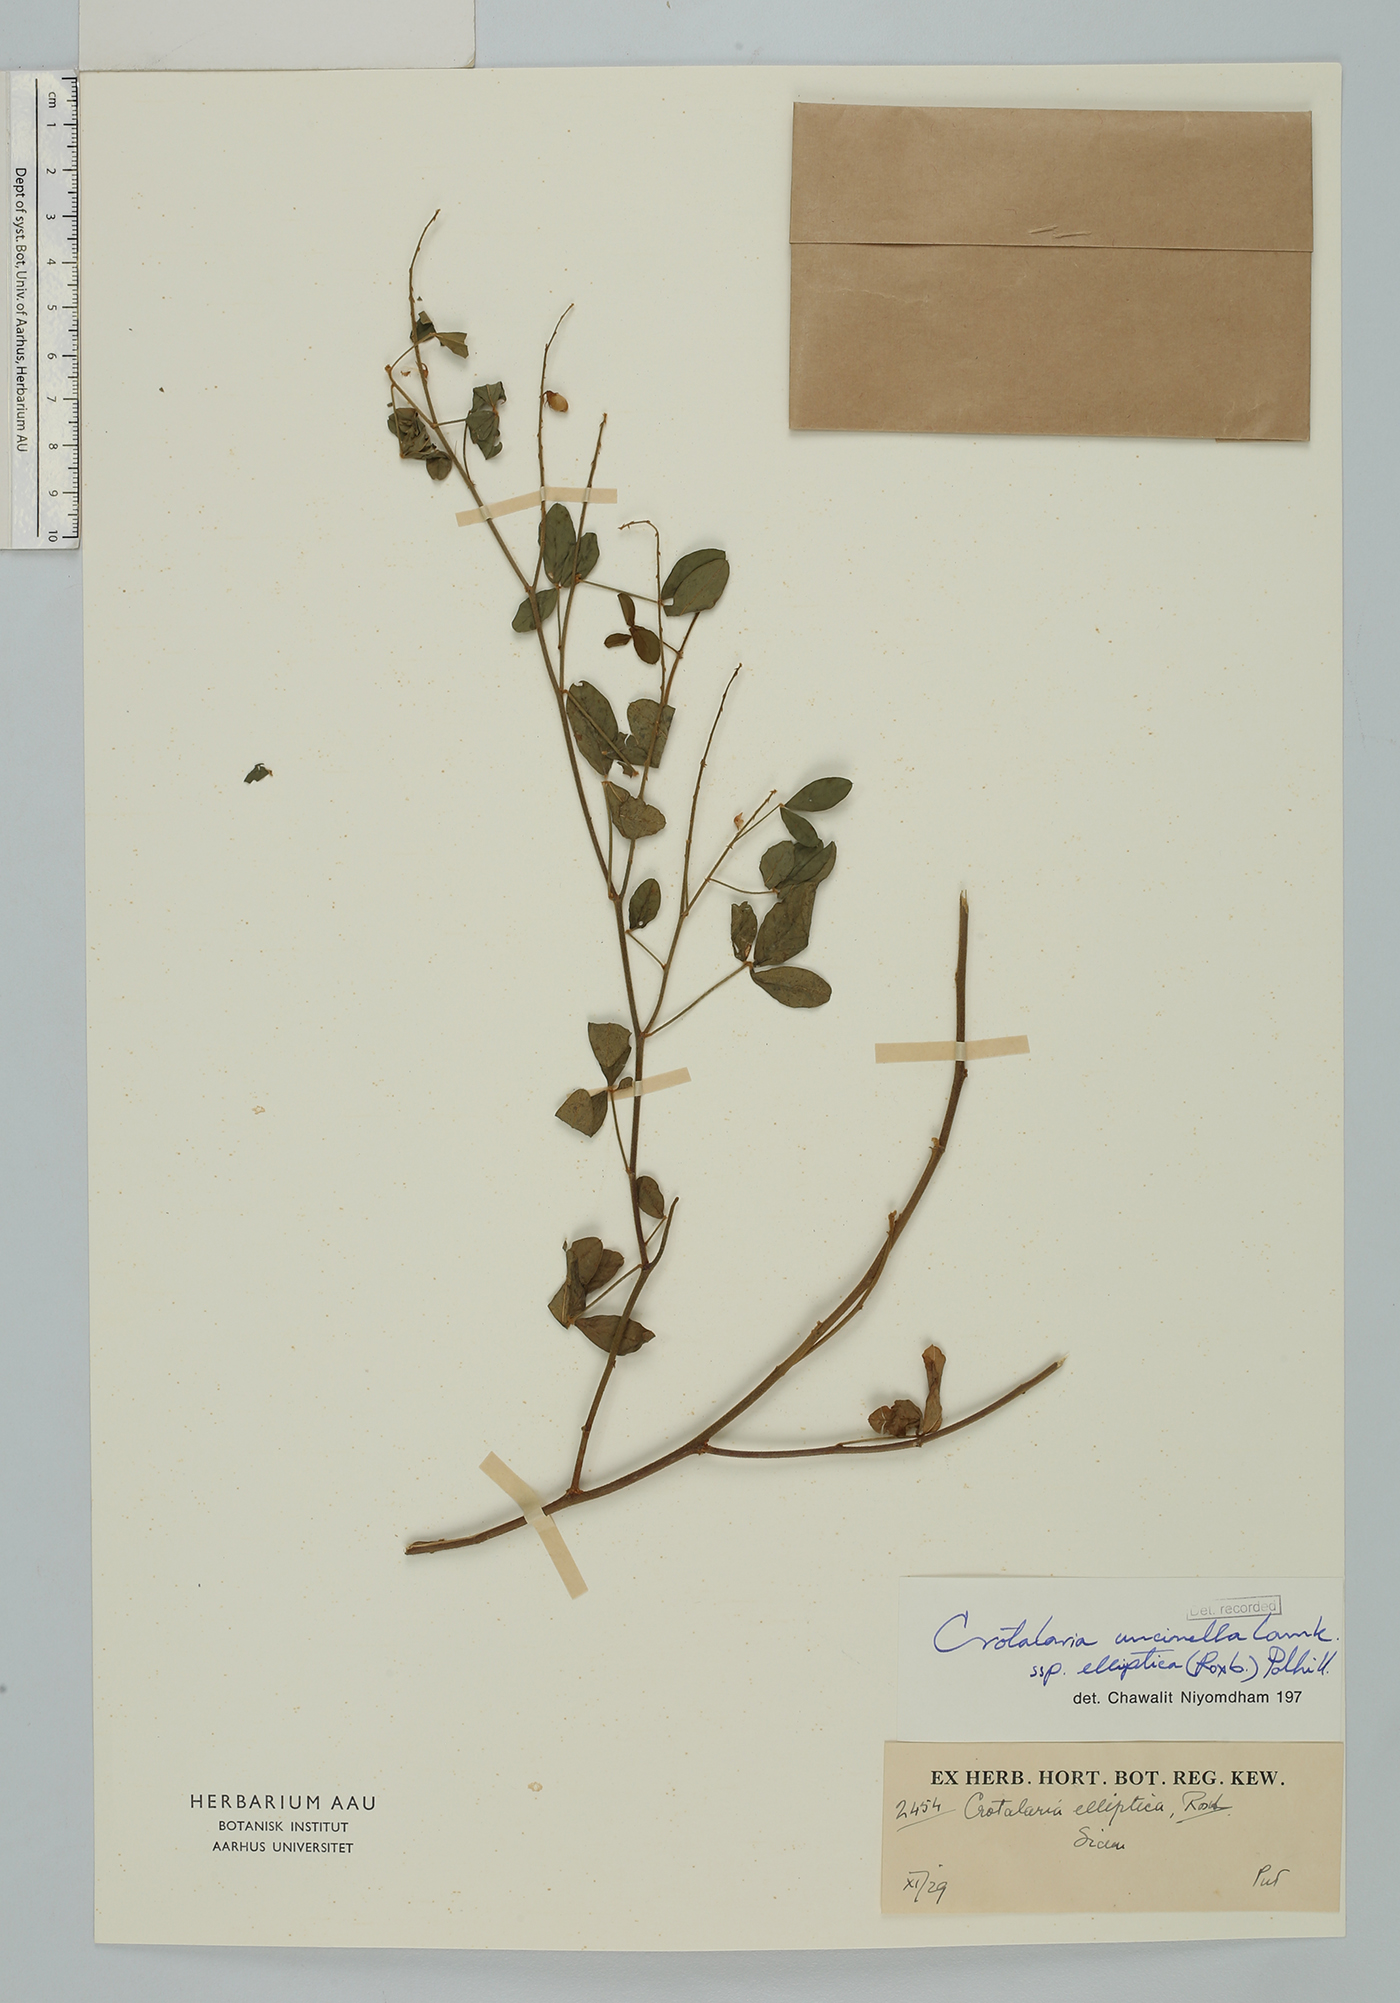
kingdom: Plantae
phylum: Tracheophyta
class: Magnoliopsida
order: Fabales
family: Fabaceae
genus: Crotalaria
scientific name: Crotalaria uncinella
